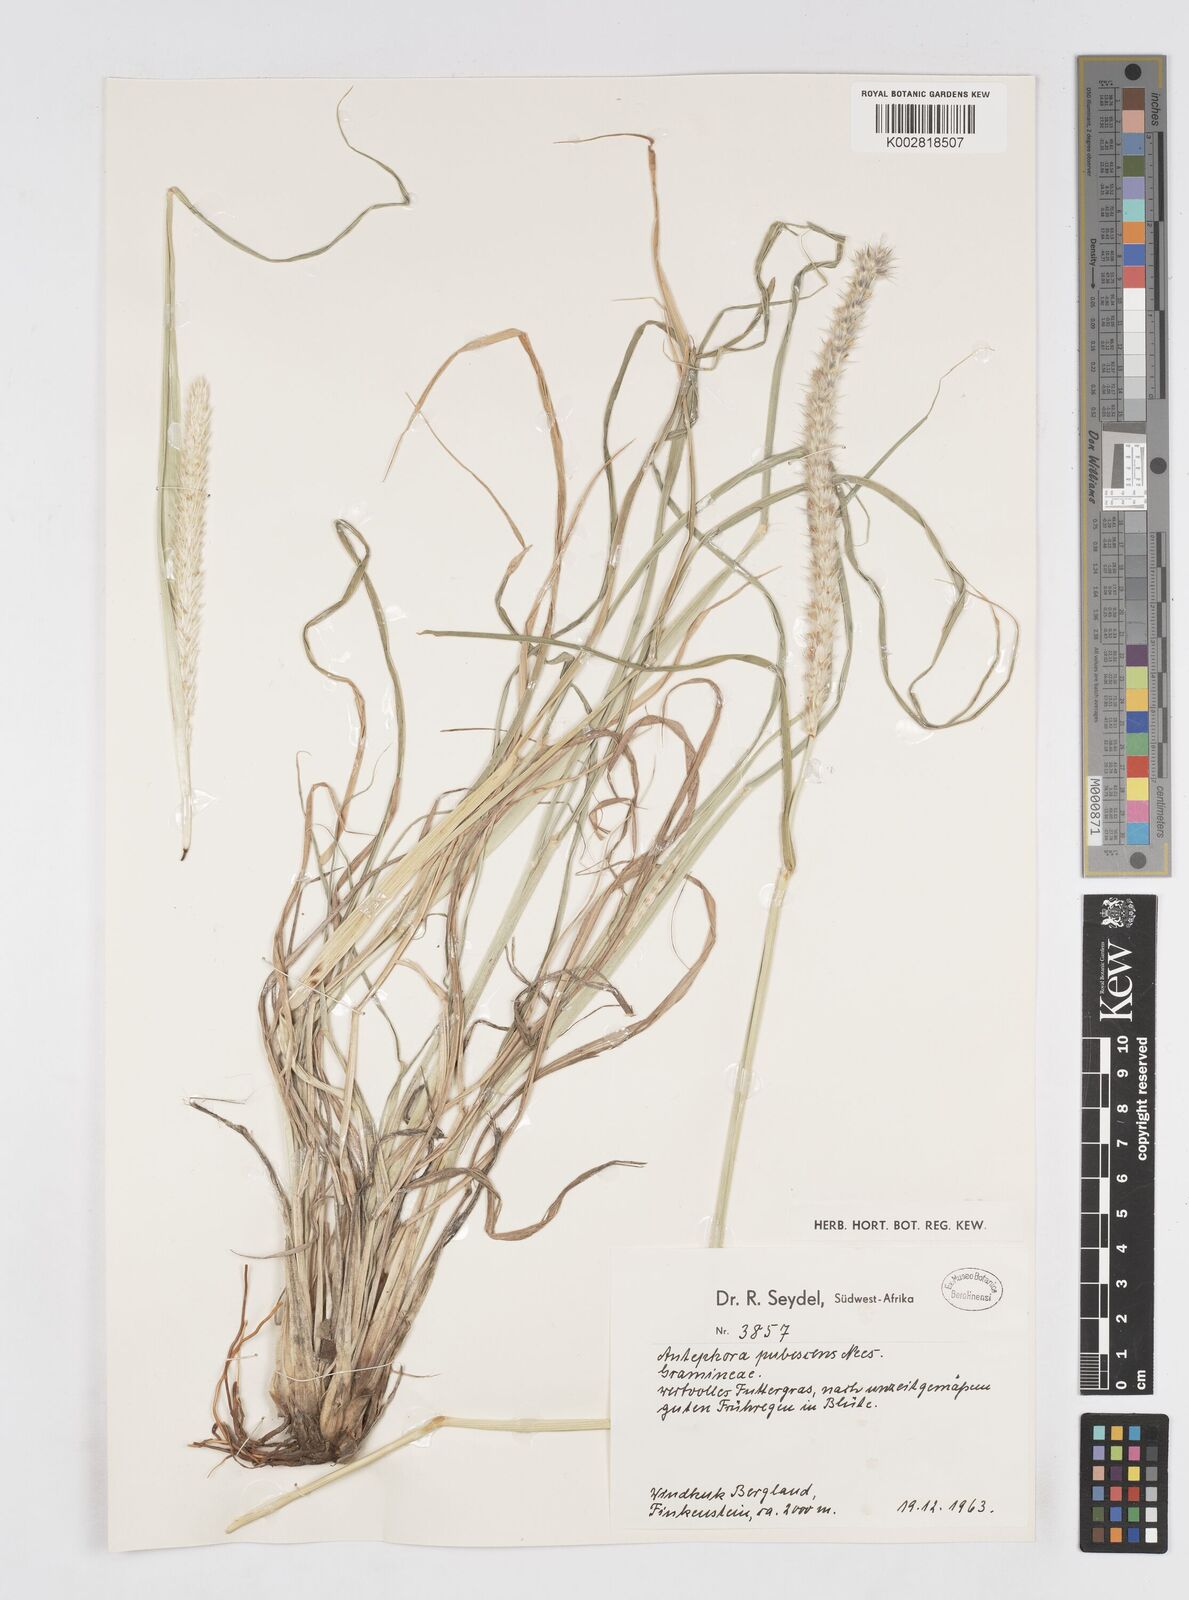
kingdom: Plantae
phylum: Tracheophyta
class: Liliopsida
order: Poales
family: Poaceae
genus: Anthephora
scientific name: Anthephora pubescens
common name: Wool grass
